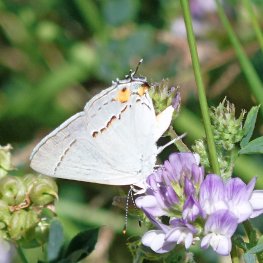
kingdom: Animalia
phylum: Arthropoda
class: Insecta
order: Lepidoptera
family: Lycaenidae
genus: Strymon
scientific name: Strymon melinus
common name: Gray Hairstreak
